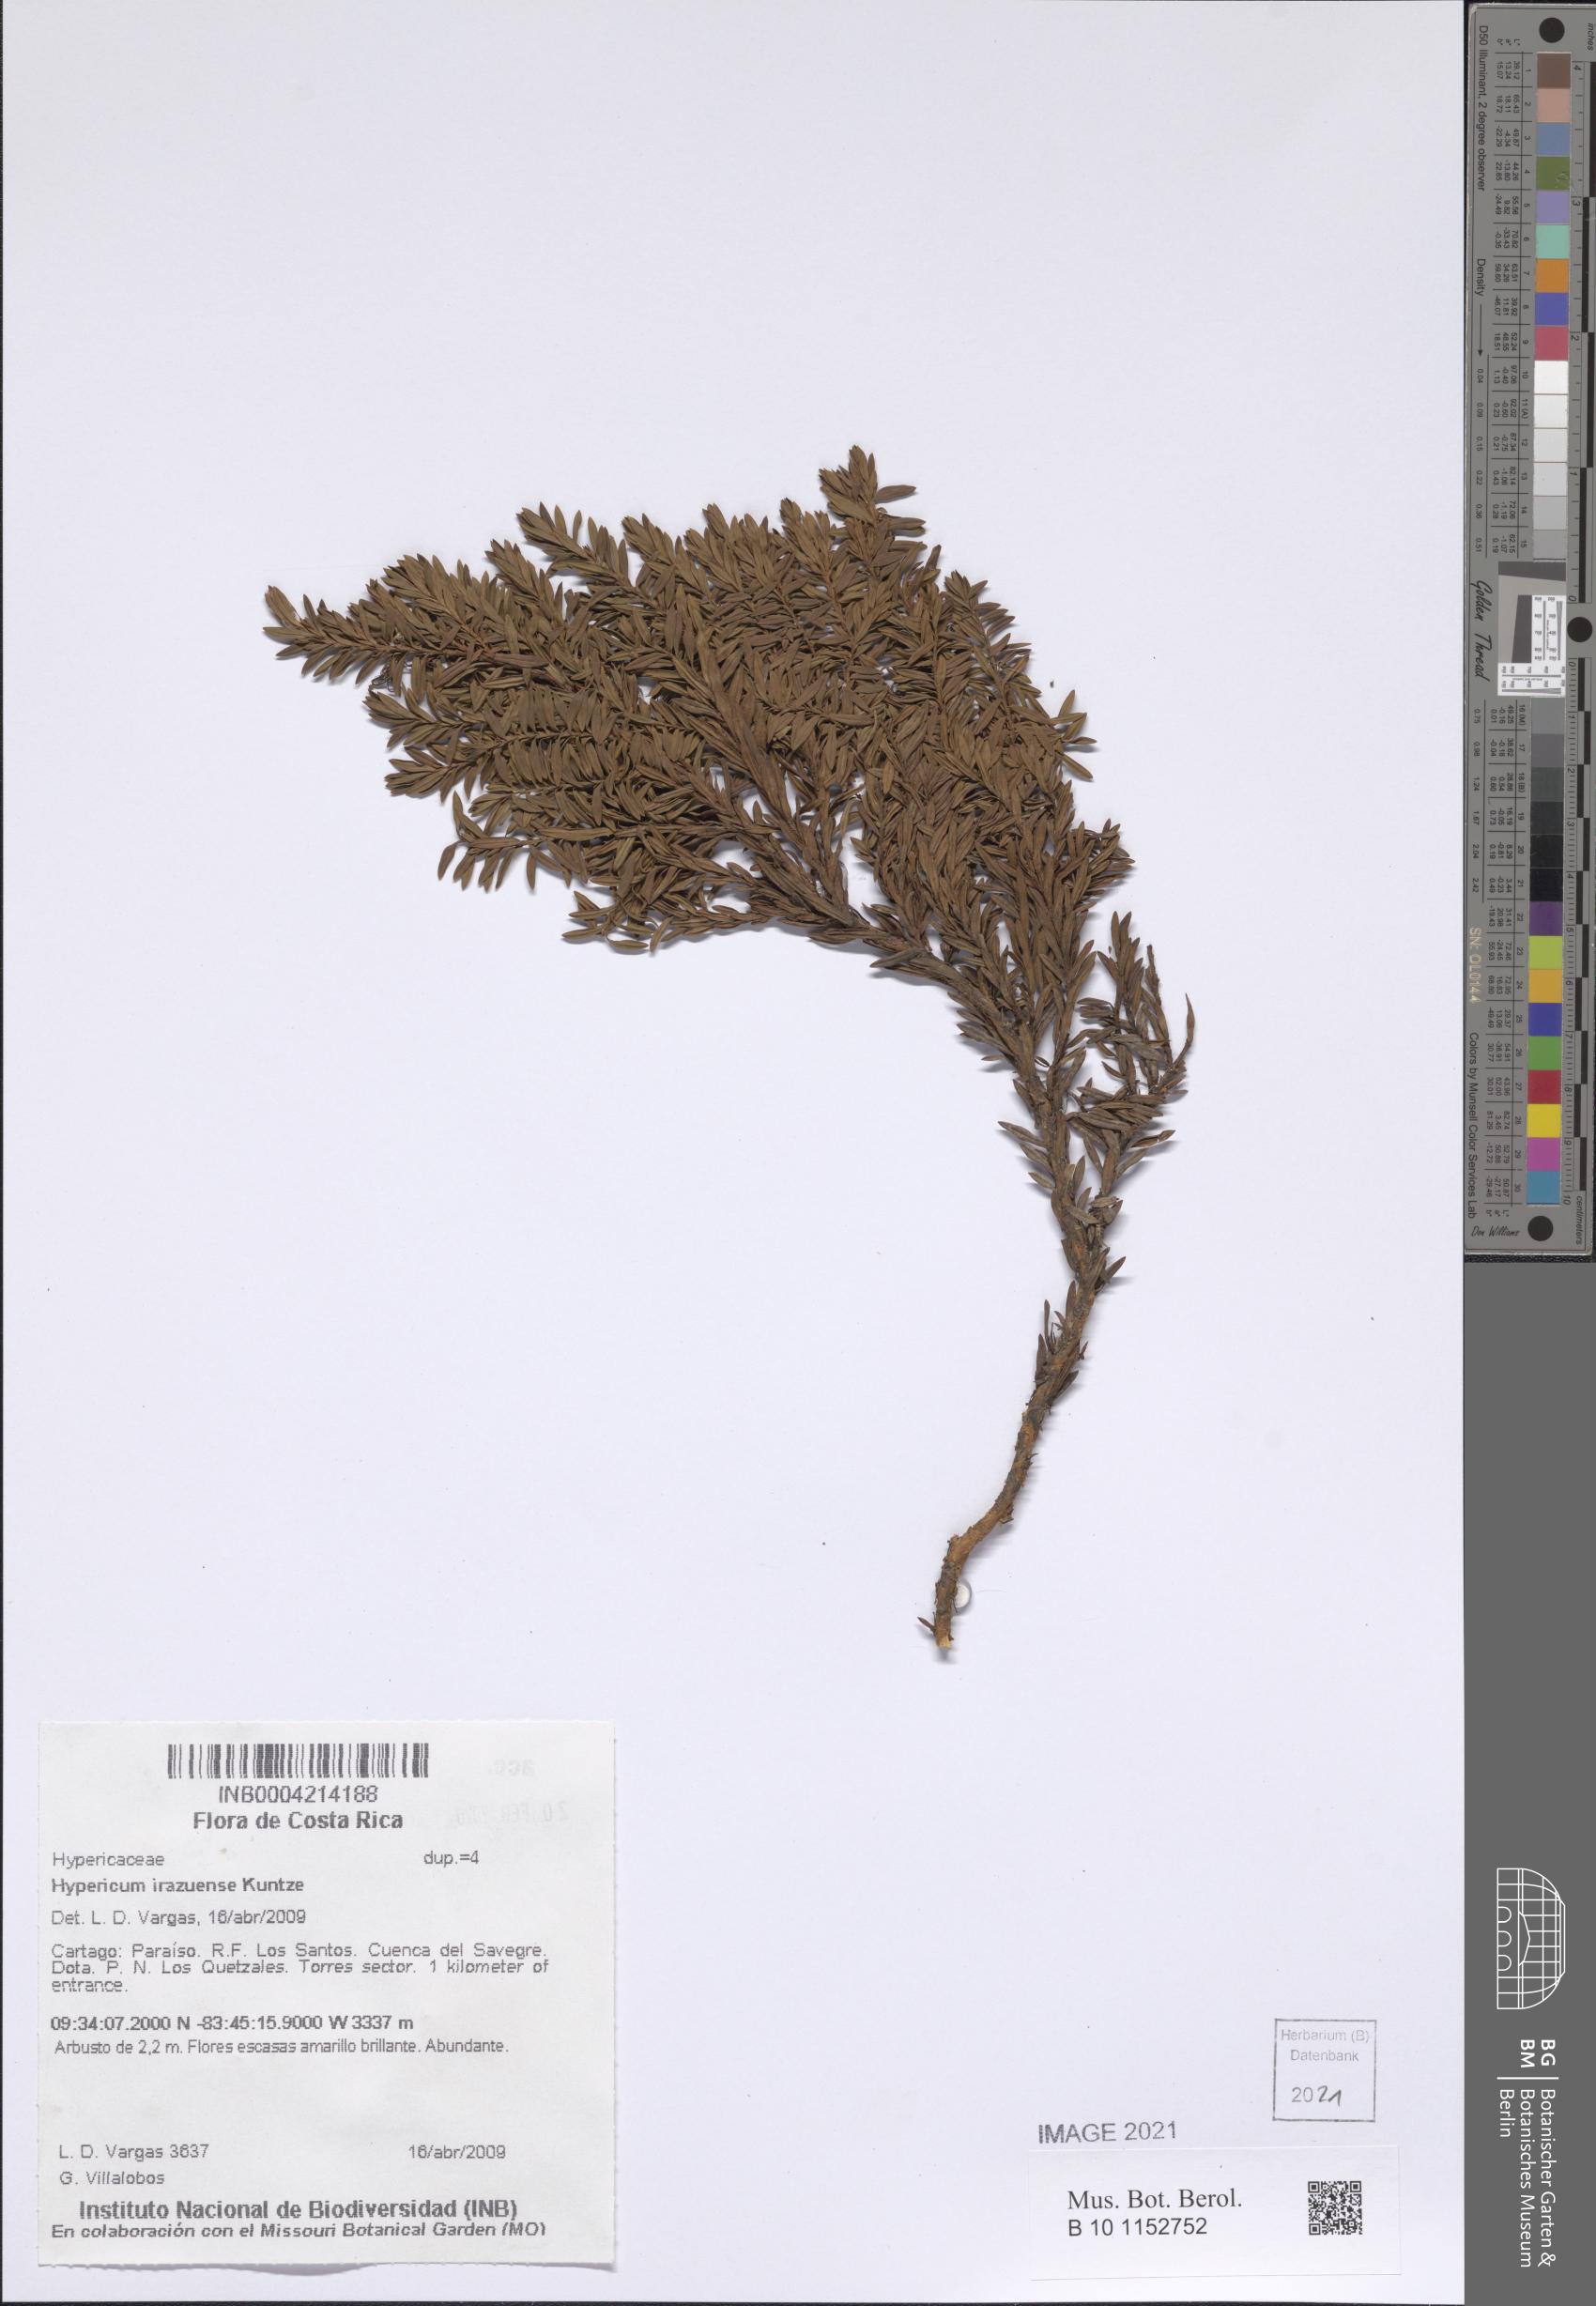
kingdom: Plantae
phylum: Tracheophyta
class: Magnoliopsida
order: Malpighiales
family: Hypericaceae
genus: Hypericum
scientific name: Hypericum irazuense
